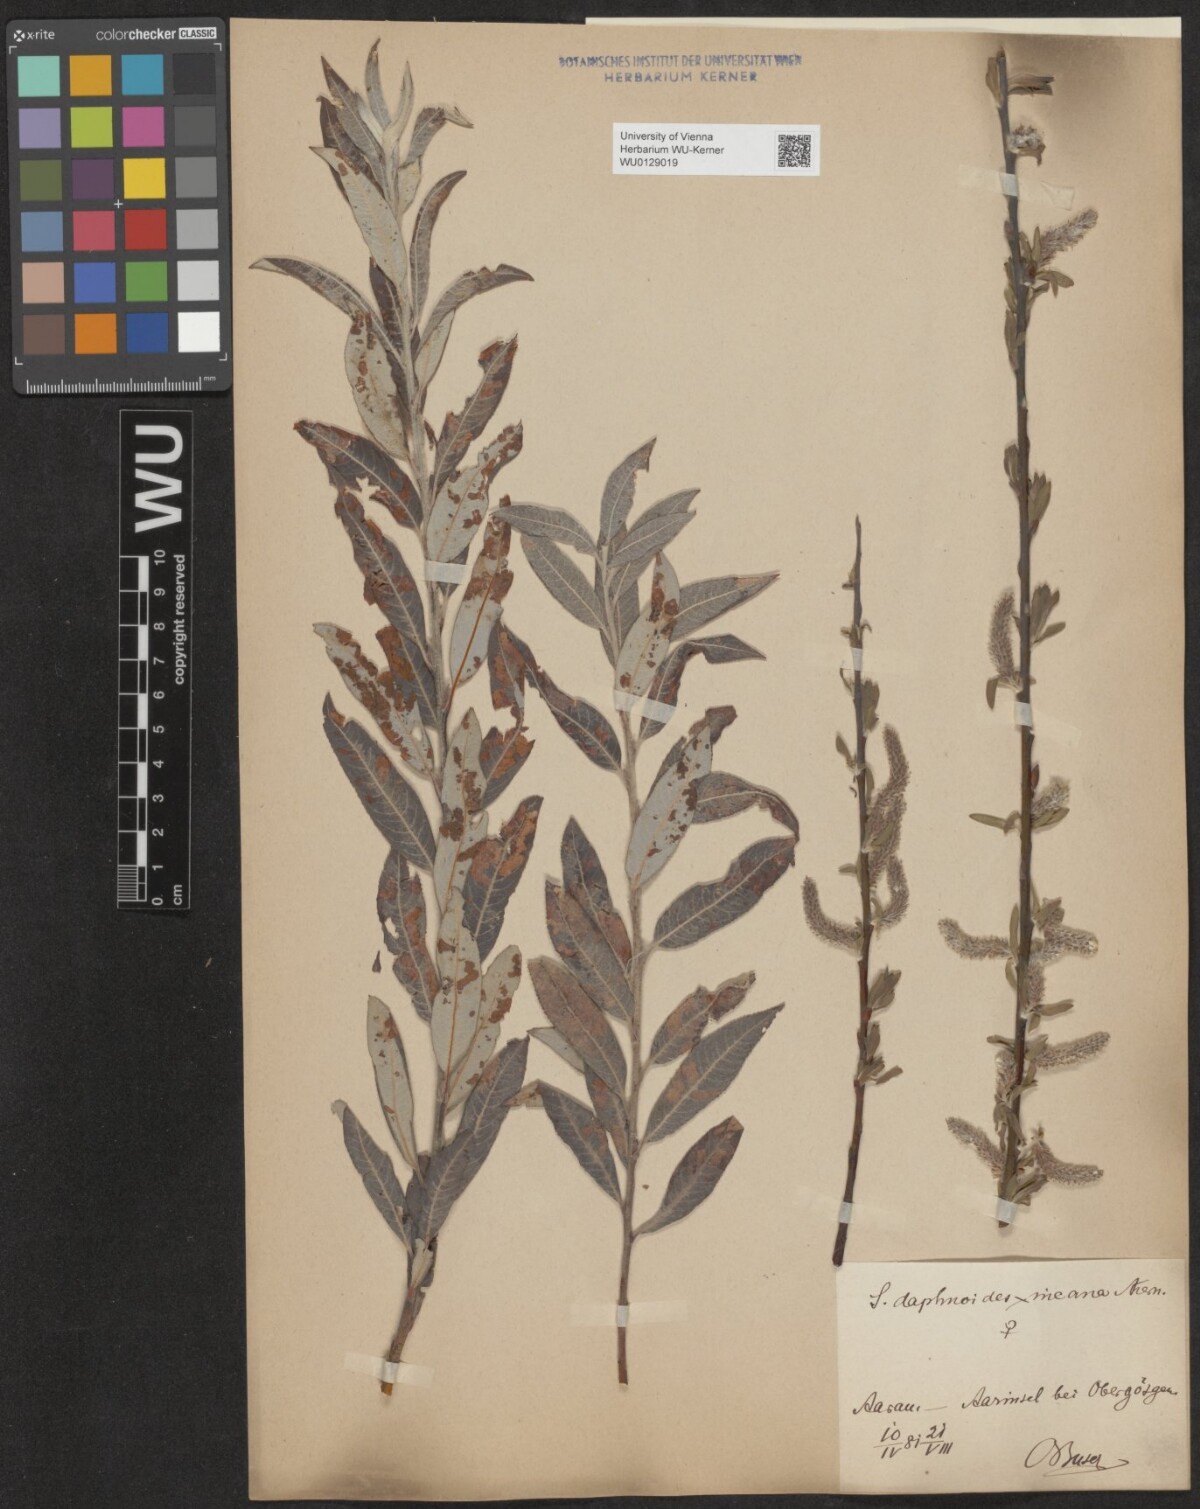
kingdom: Plantae
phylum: Tracheophyta
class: Magnoliopsida
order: Malpighiales
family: Salicaceae
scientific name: Salicaceae
